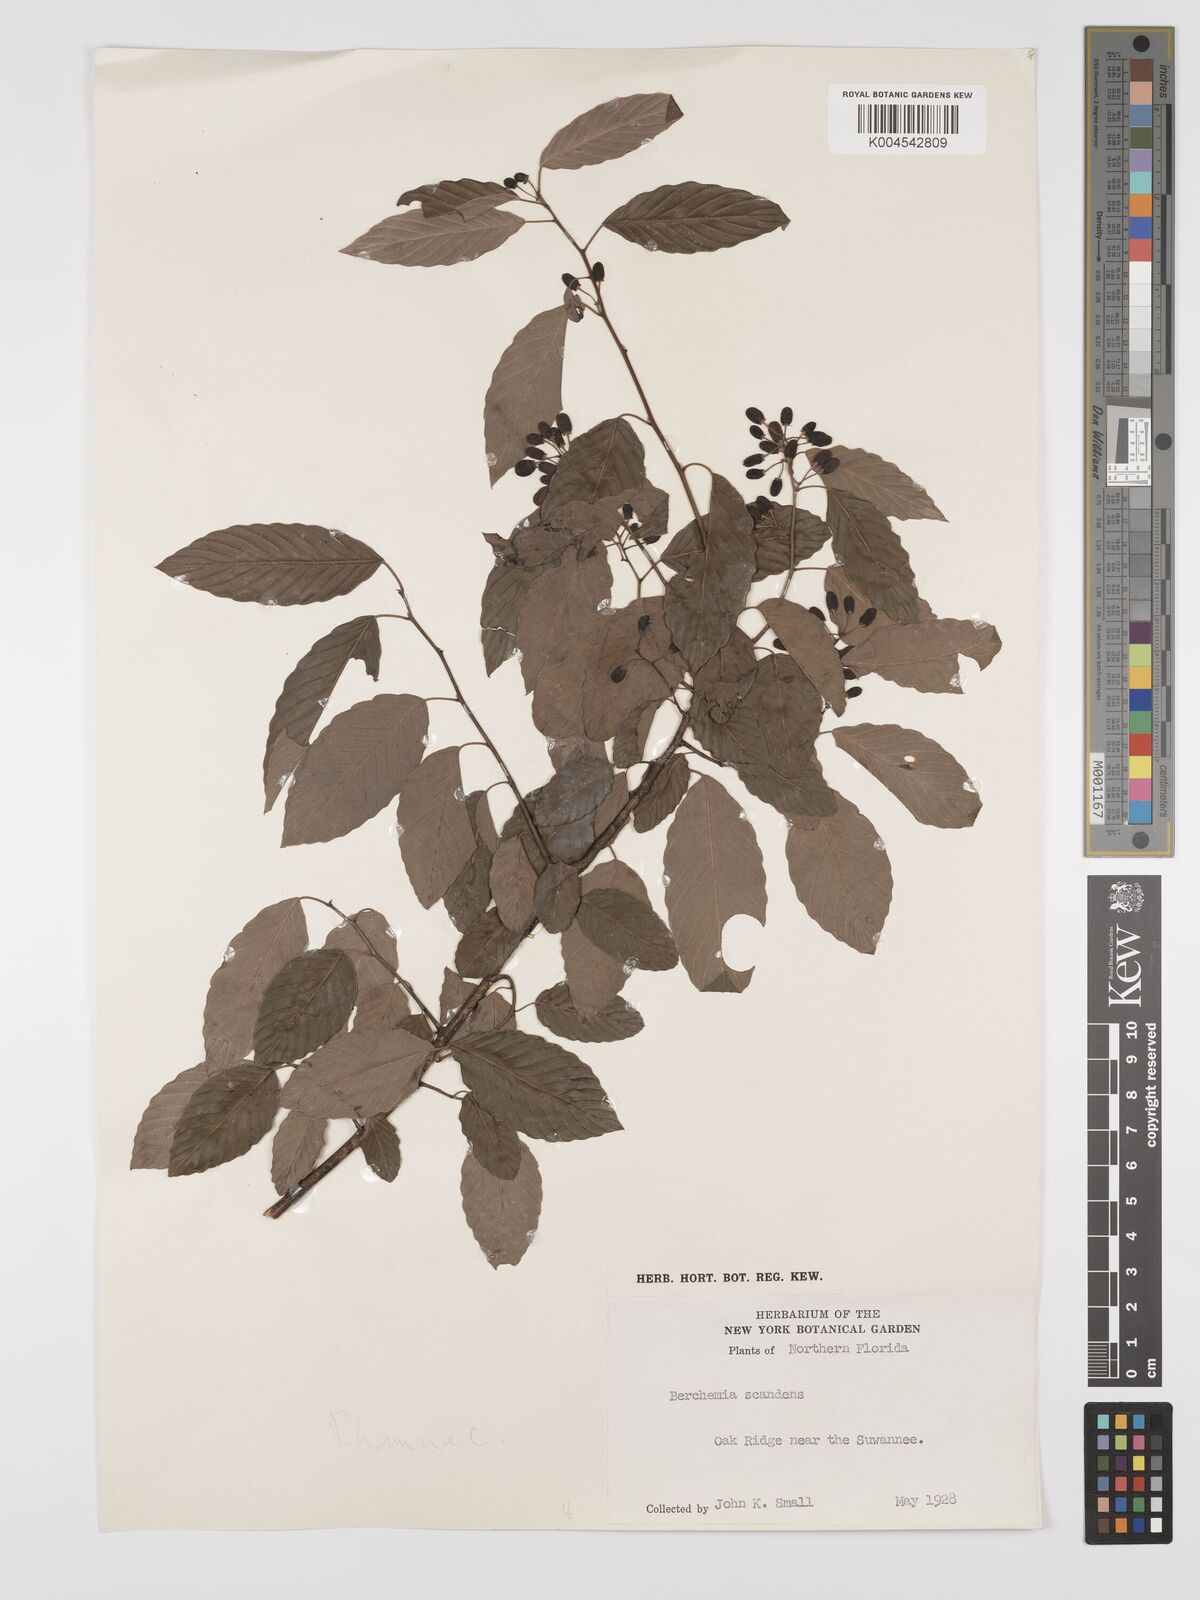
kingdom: Plantae
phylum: Tracheophyta
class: Magnoliopsida
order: Rosales
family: Rhamnaceae
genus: Berchemia
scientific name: Berchemia scandens
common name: Supplejack
